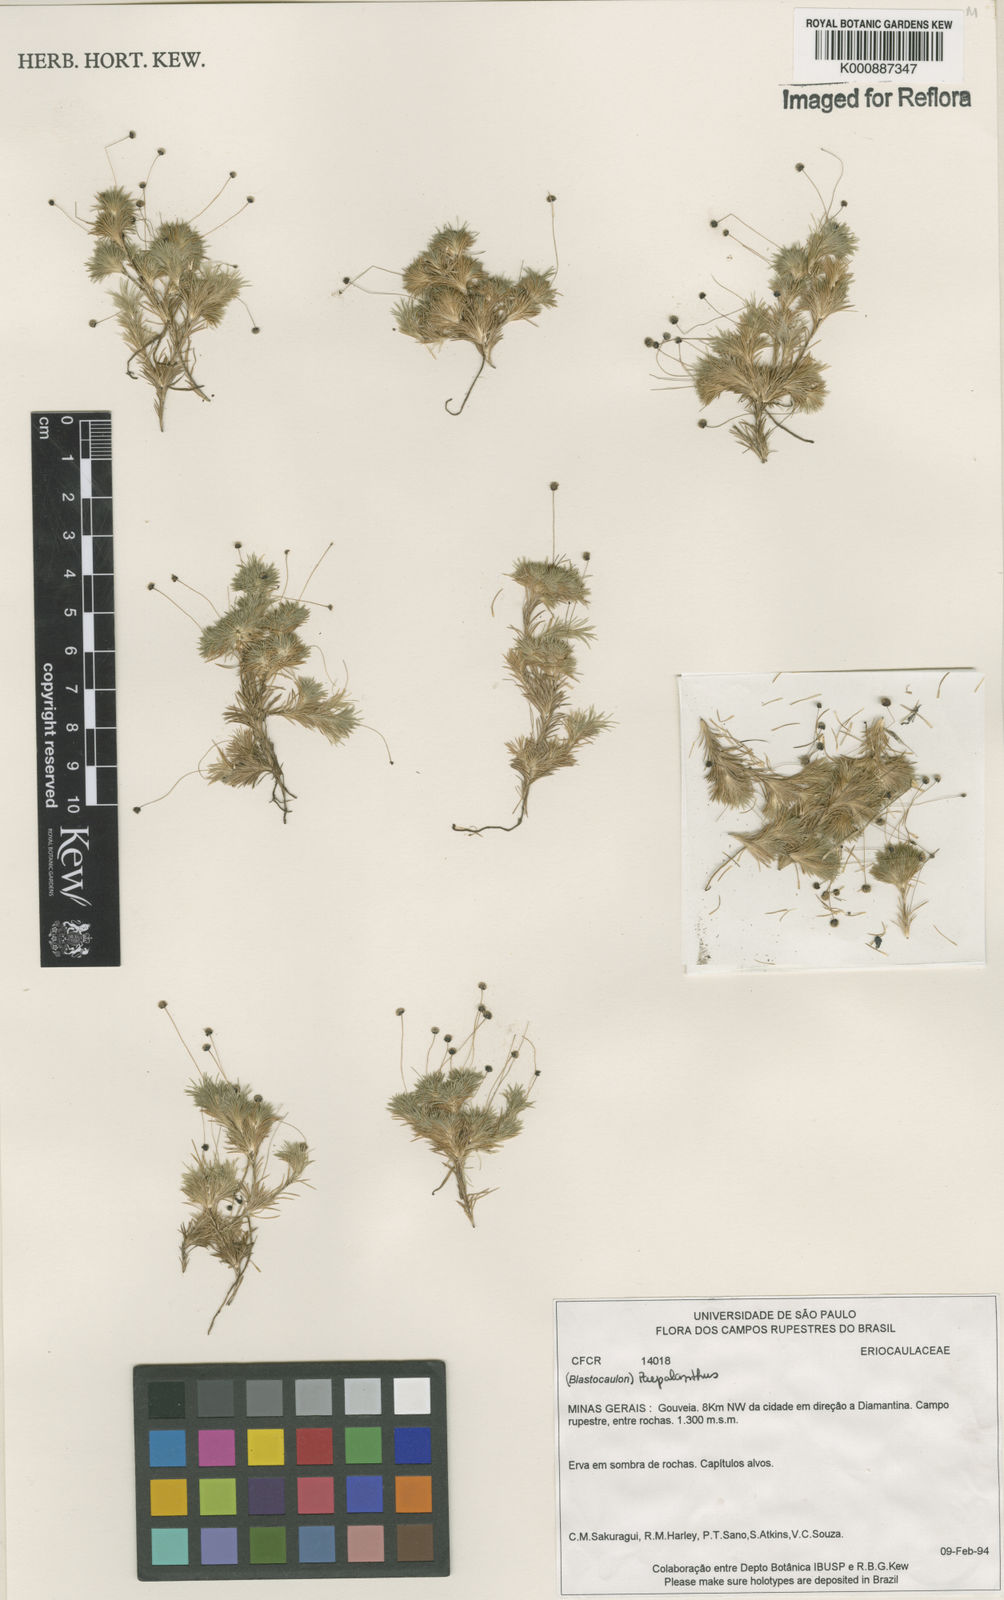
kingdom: Plantae
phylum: Tracheophyta
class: Liliopsida
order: Poales
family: Eriocaulaceae
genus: Paepalanthus
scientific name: Paepalanthus
